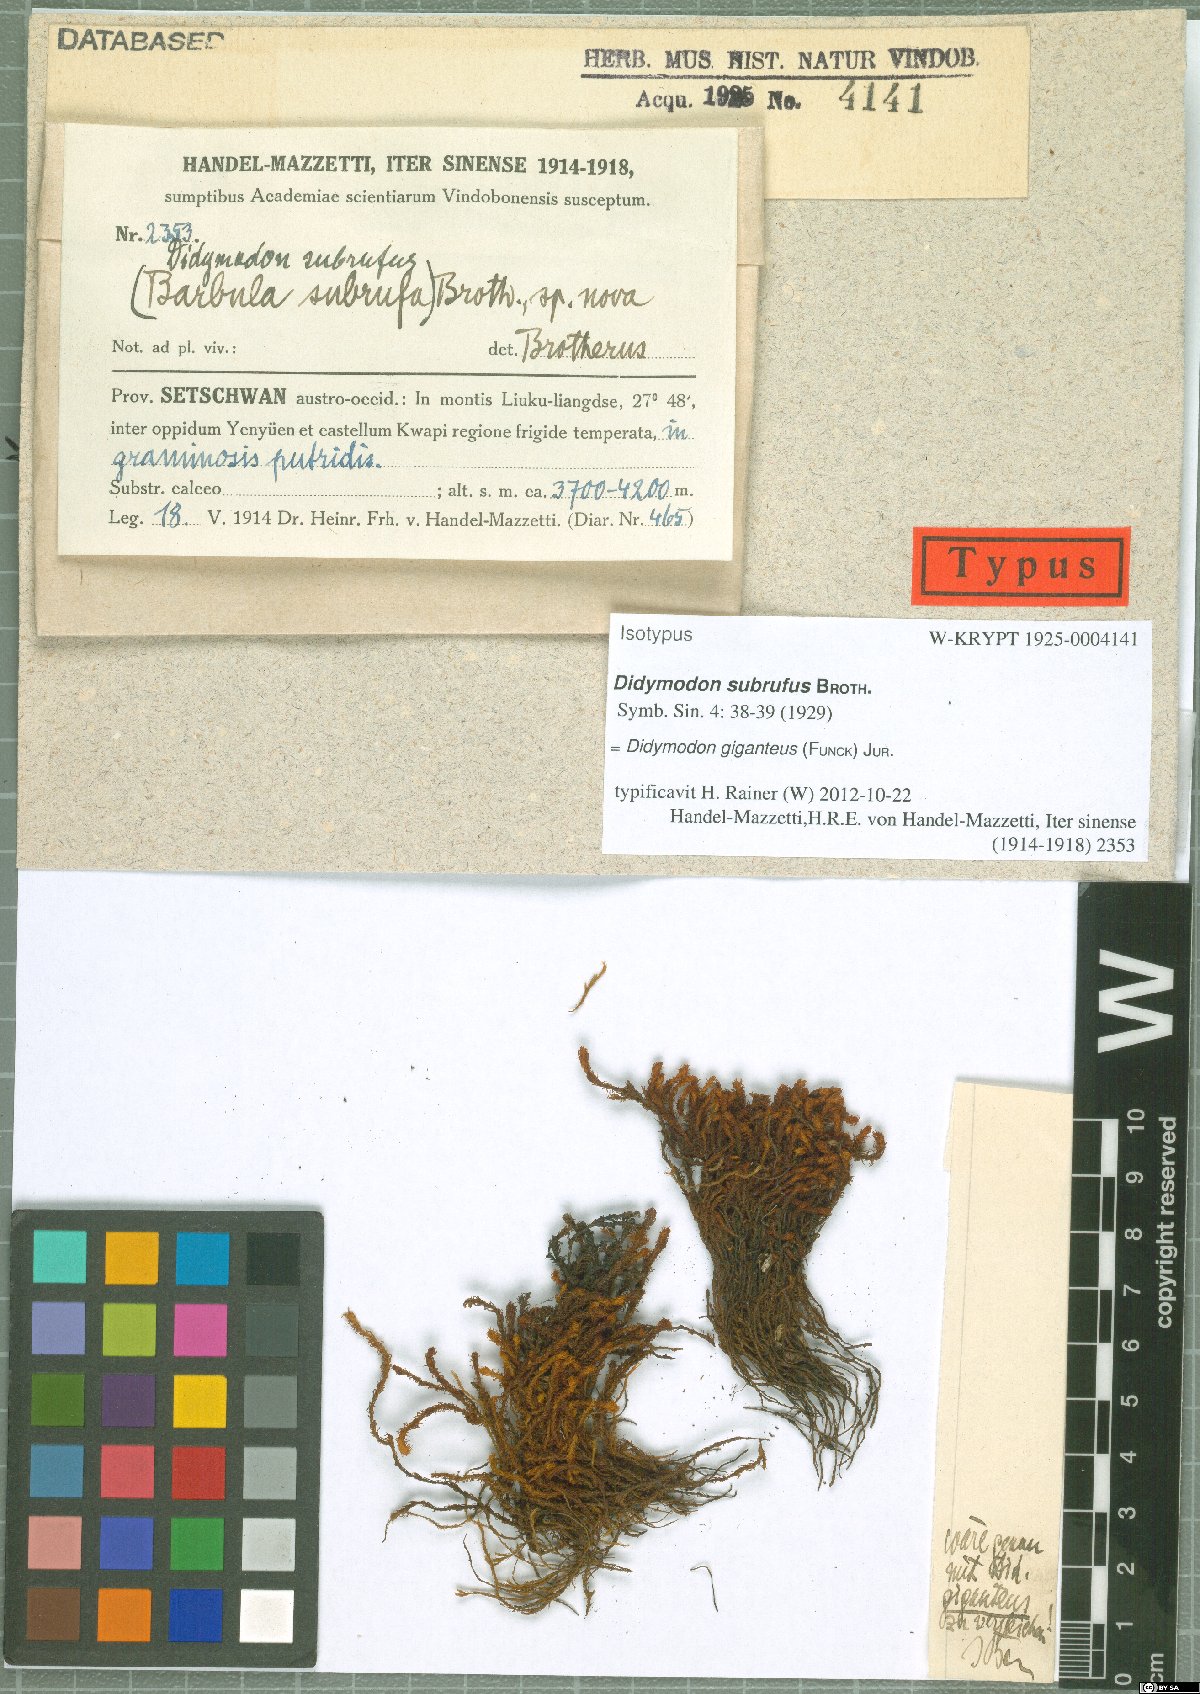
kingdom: Plantae
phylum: Bryophyta
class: Bryopsida
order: Pottiales
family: Pottiaceae
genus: Geheebia
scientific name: Geheebia gigantea
